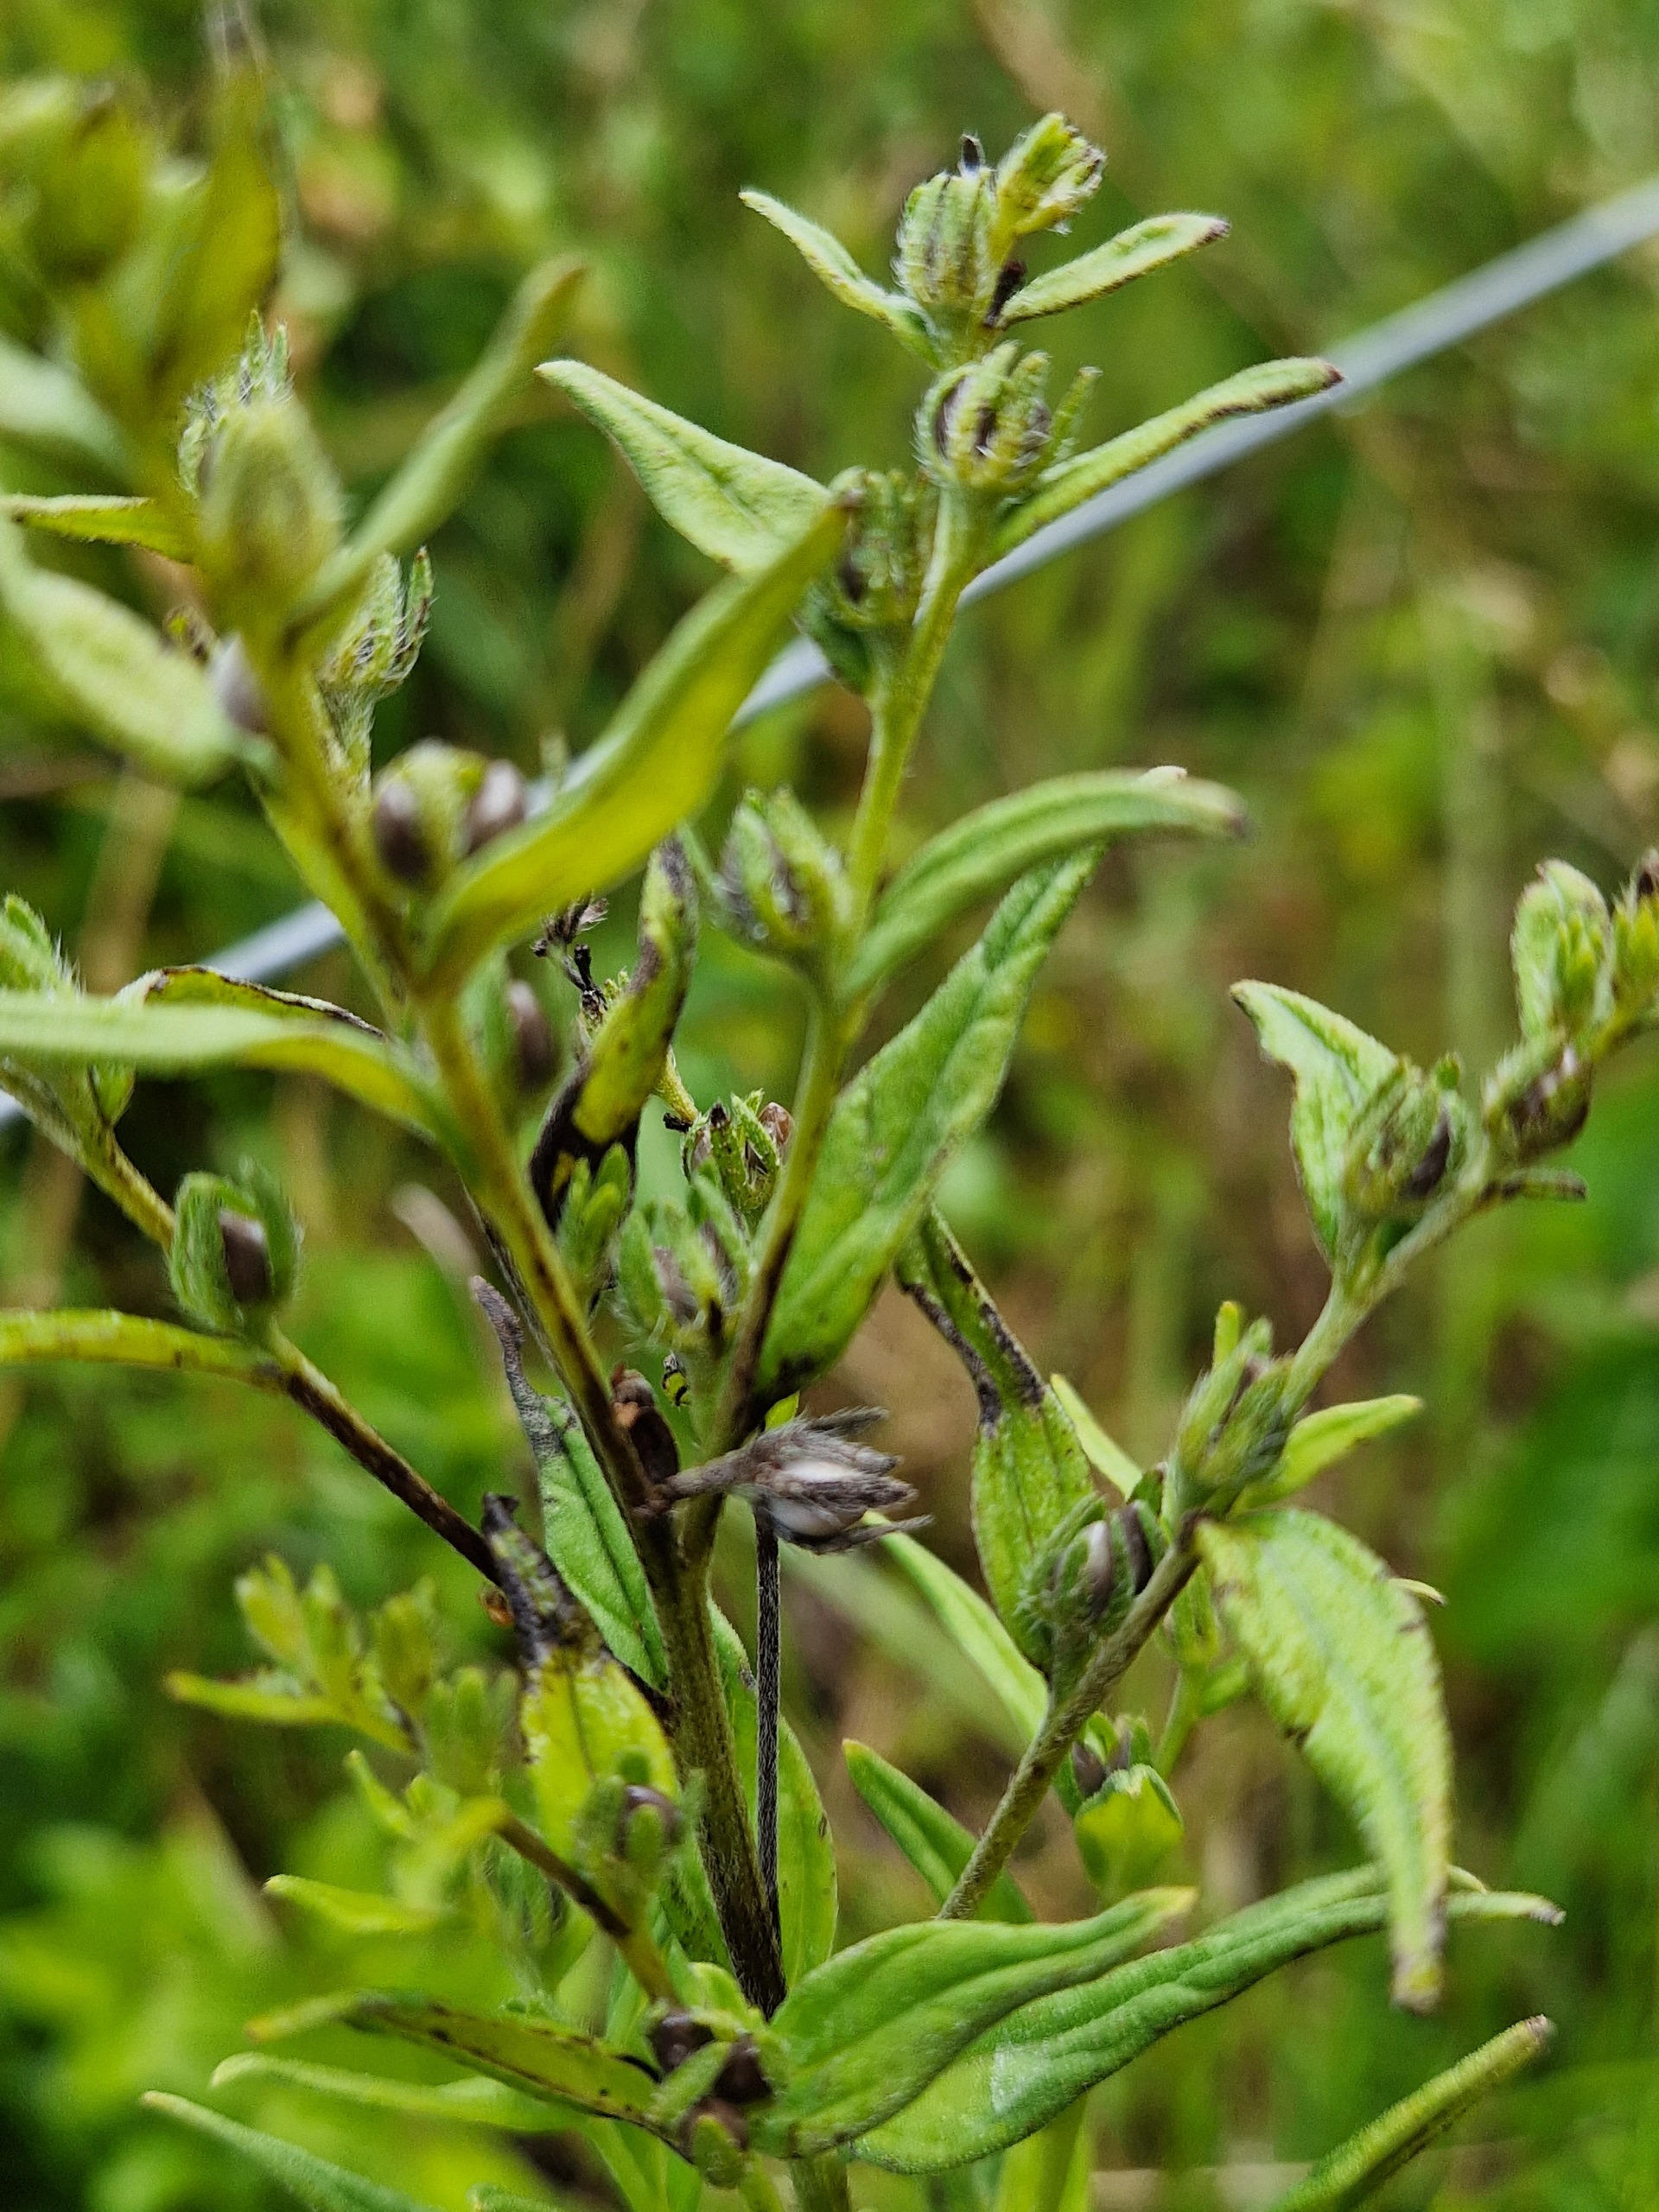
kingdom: Plantae
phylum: Tracheophyta
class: Magnoliopsida
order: Boraginales
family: Boraginaceae
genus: Lithospermum
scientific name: Lithospermum officinale
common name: Læge-stenfrø
